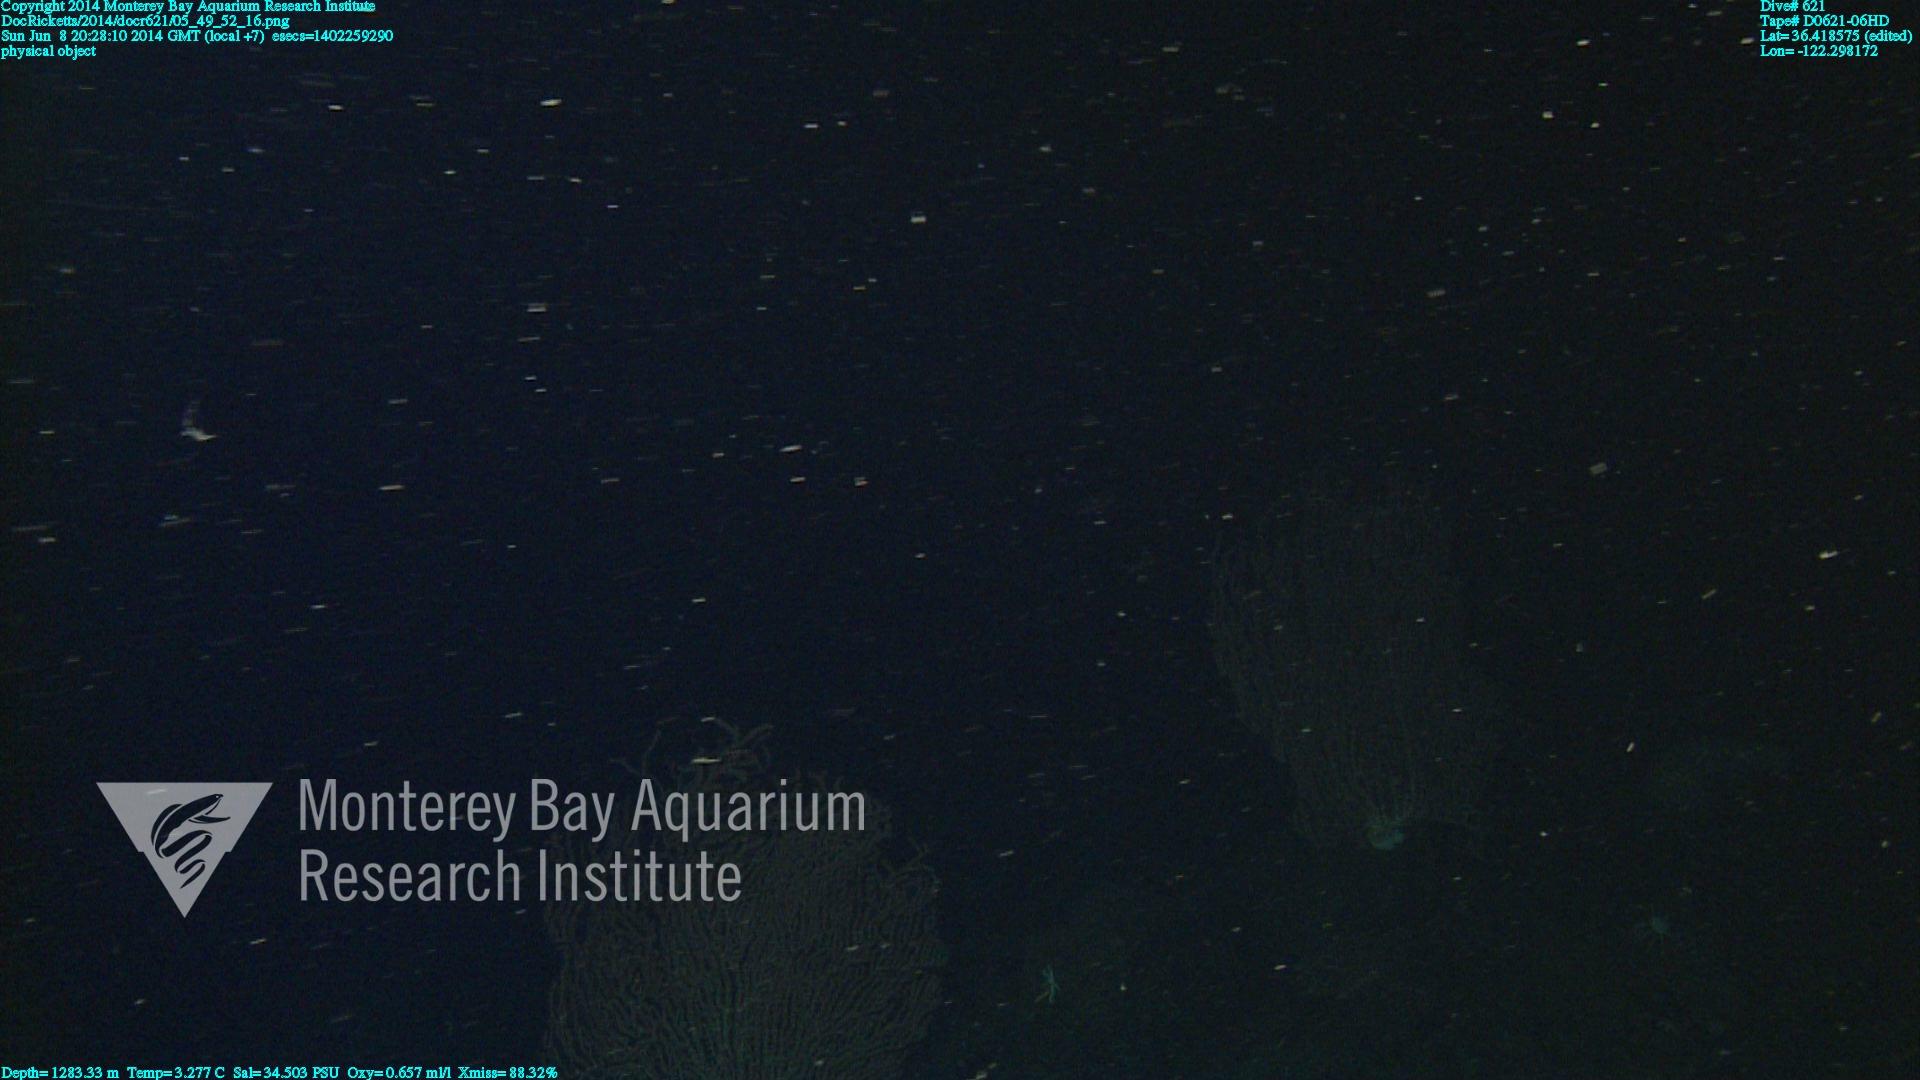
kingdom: Animalia
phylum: Cnidaria
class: Anthozoa
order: Scleralcyonacea
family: Keratoisididae
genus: Keratoisis
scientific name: Keratoisis
